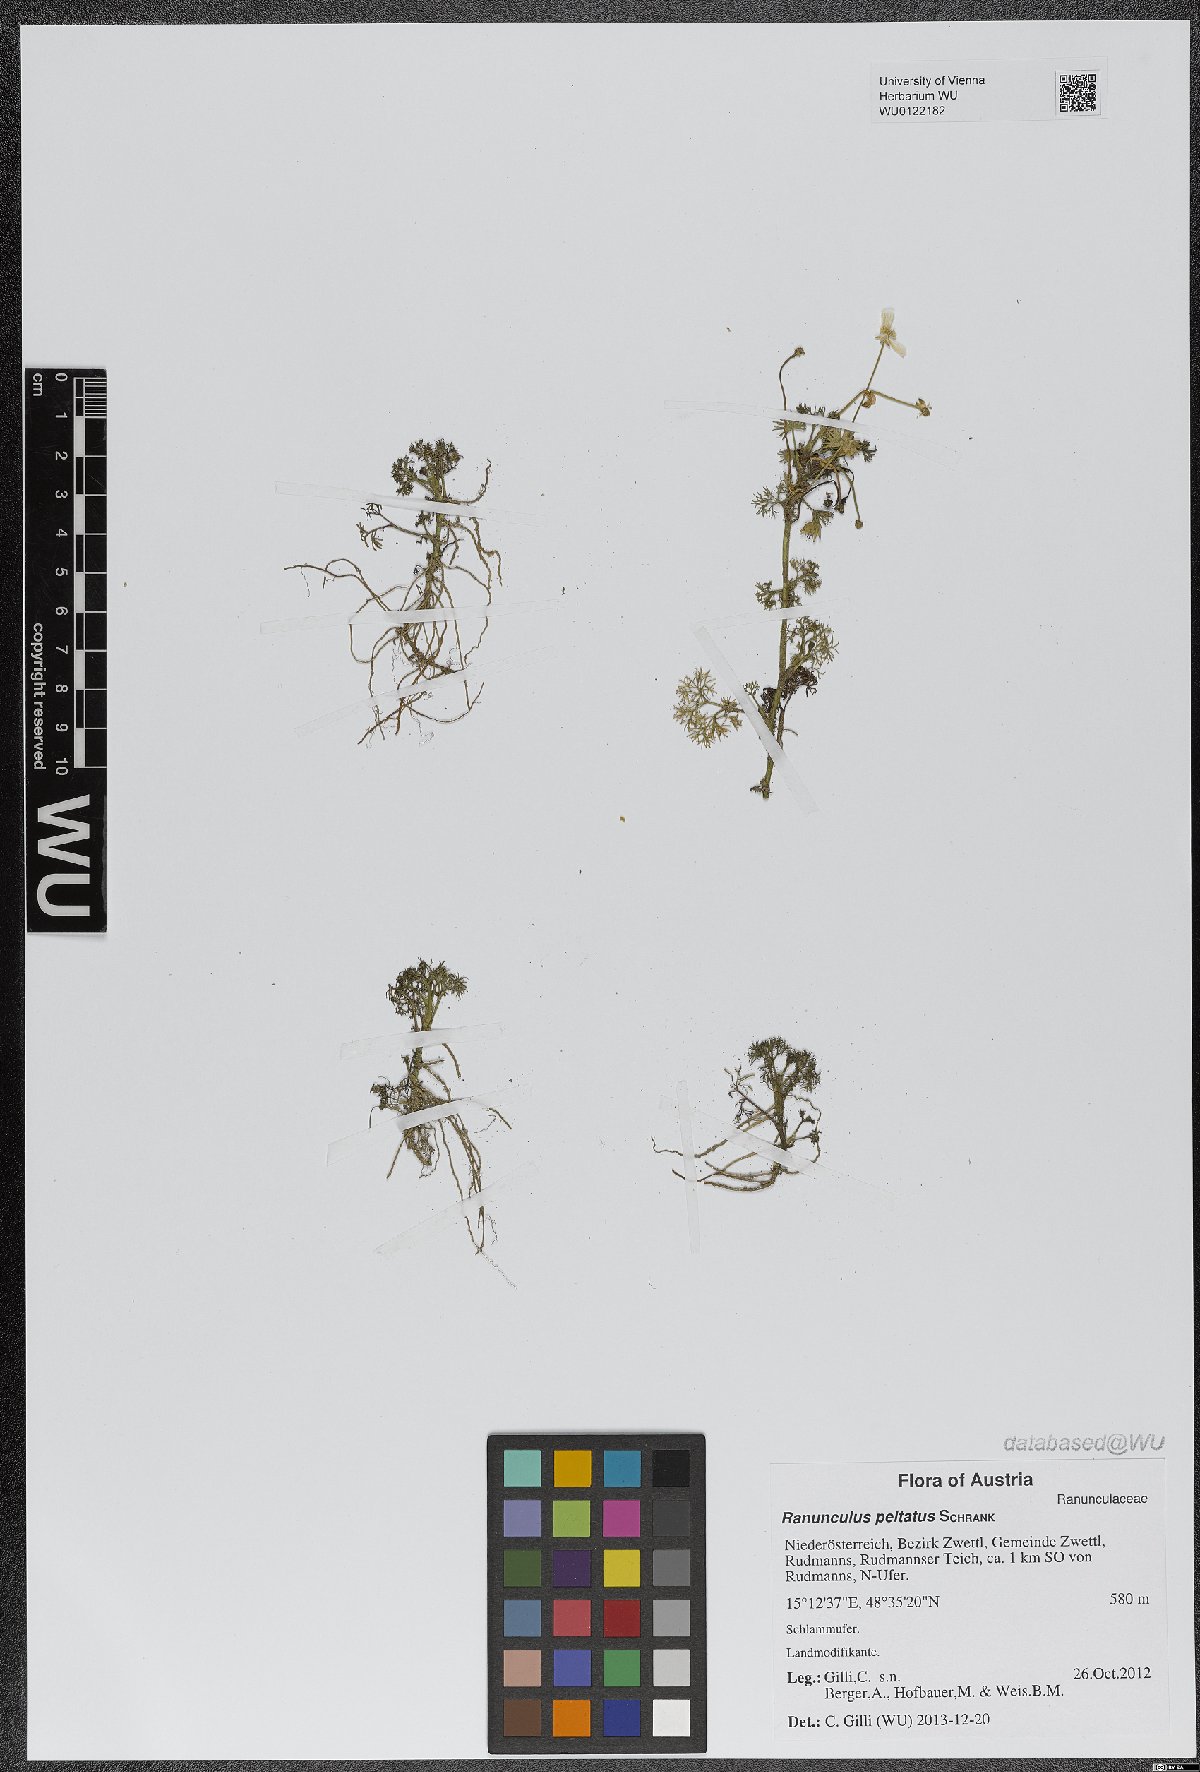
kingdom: Plantae
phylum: Tracheophyta
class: Magnoliopsida
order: Ranunculales
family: Ranunculaceae
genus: Ranunculus
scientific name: Ranunculus peltatus
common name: Pond water-crowfoot
